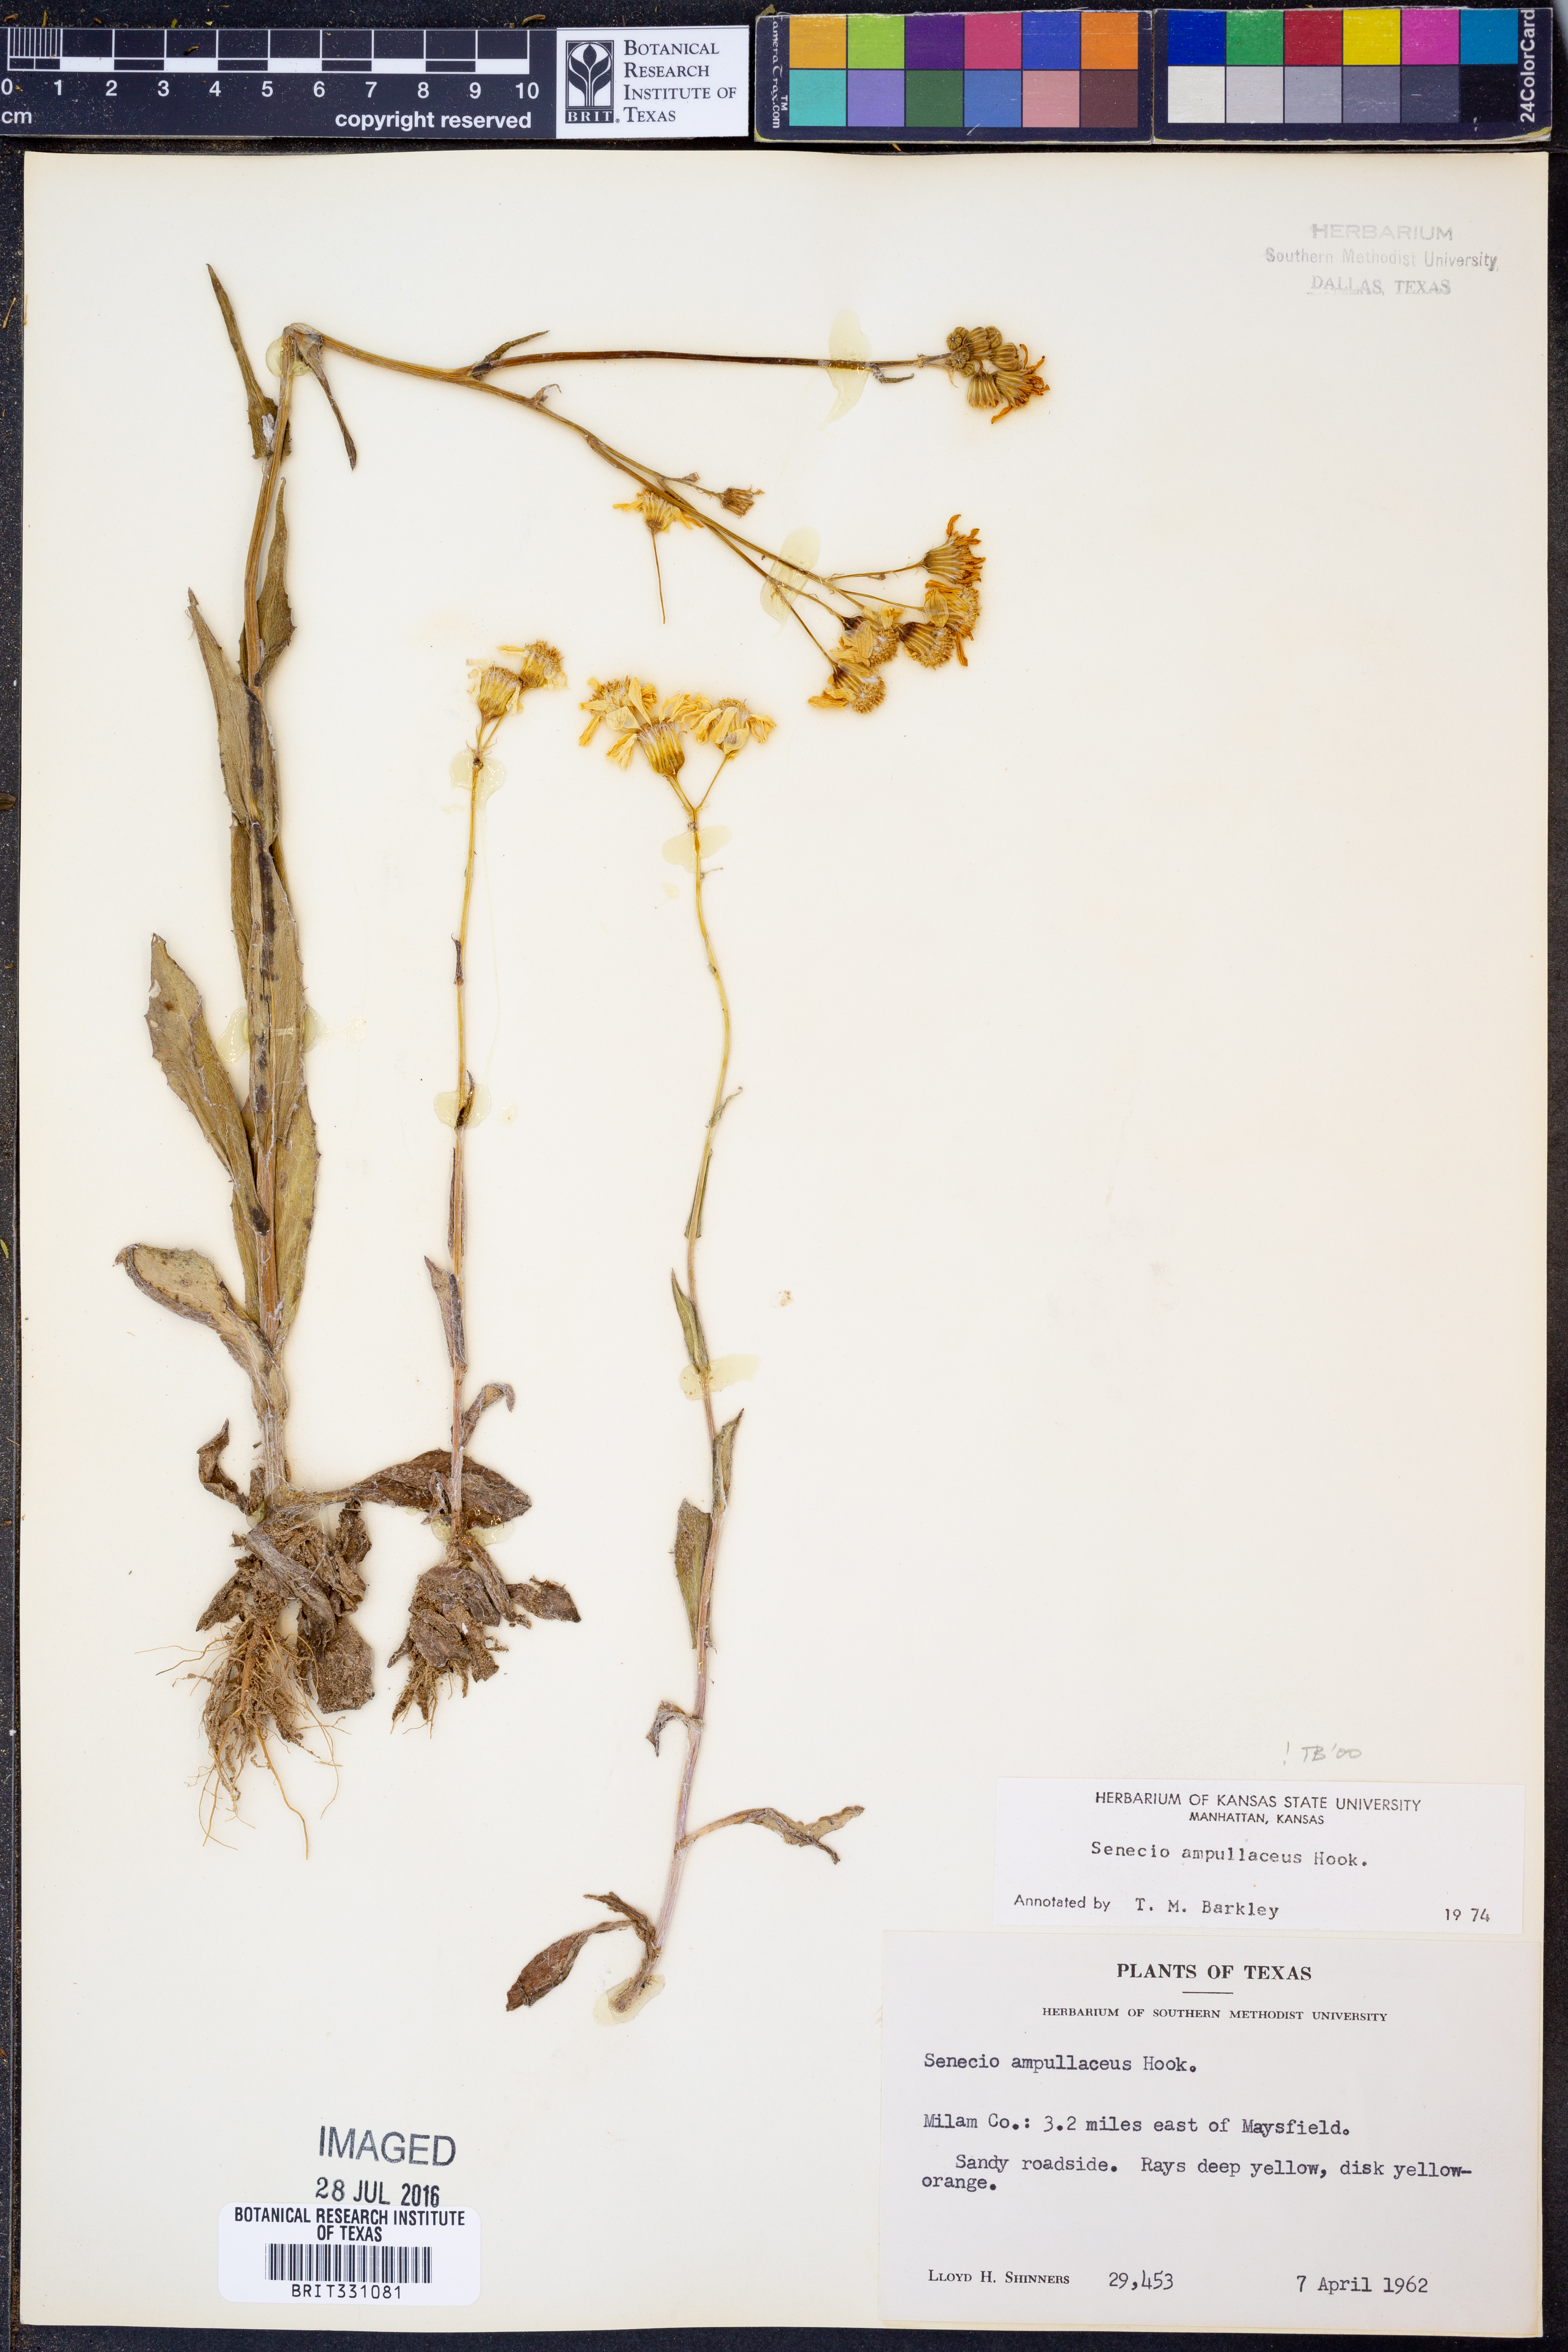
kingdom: Plantae
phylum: Tracheophyta
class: Magnoliopsida
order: Asterales
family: Asteraceae
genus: Senecio
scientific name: Senecio ampullaceus
